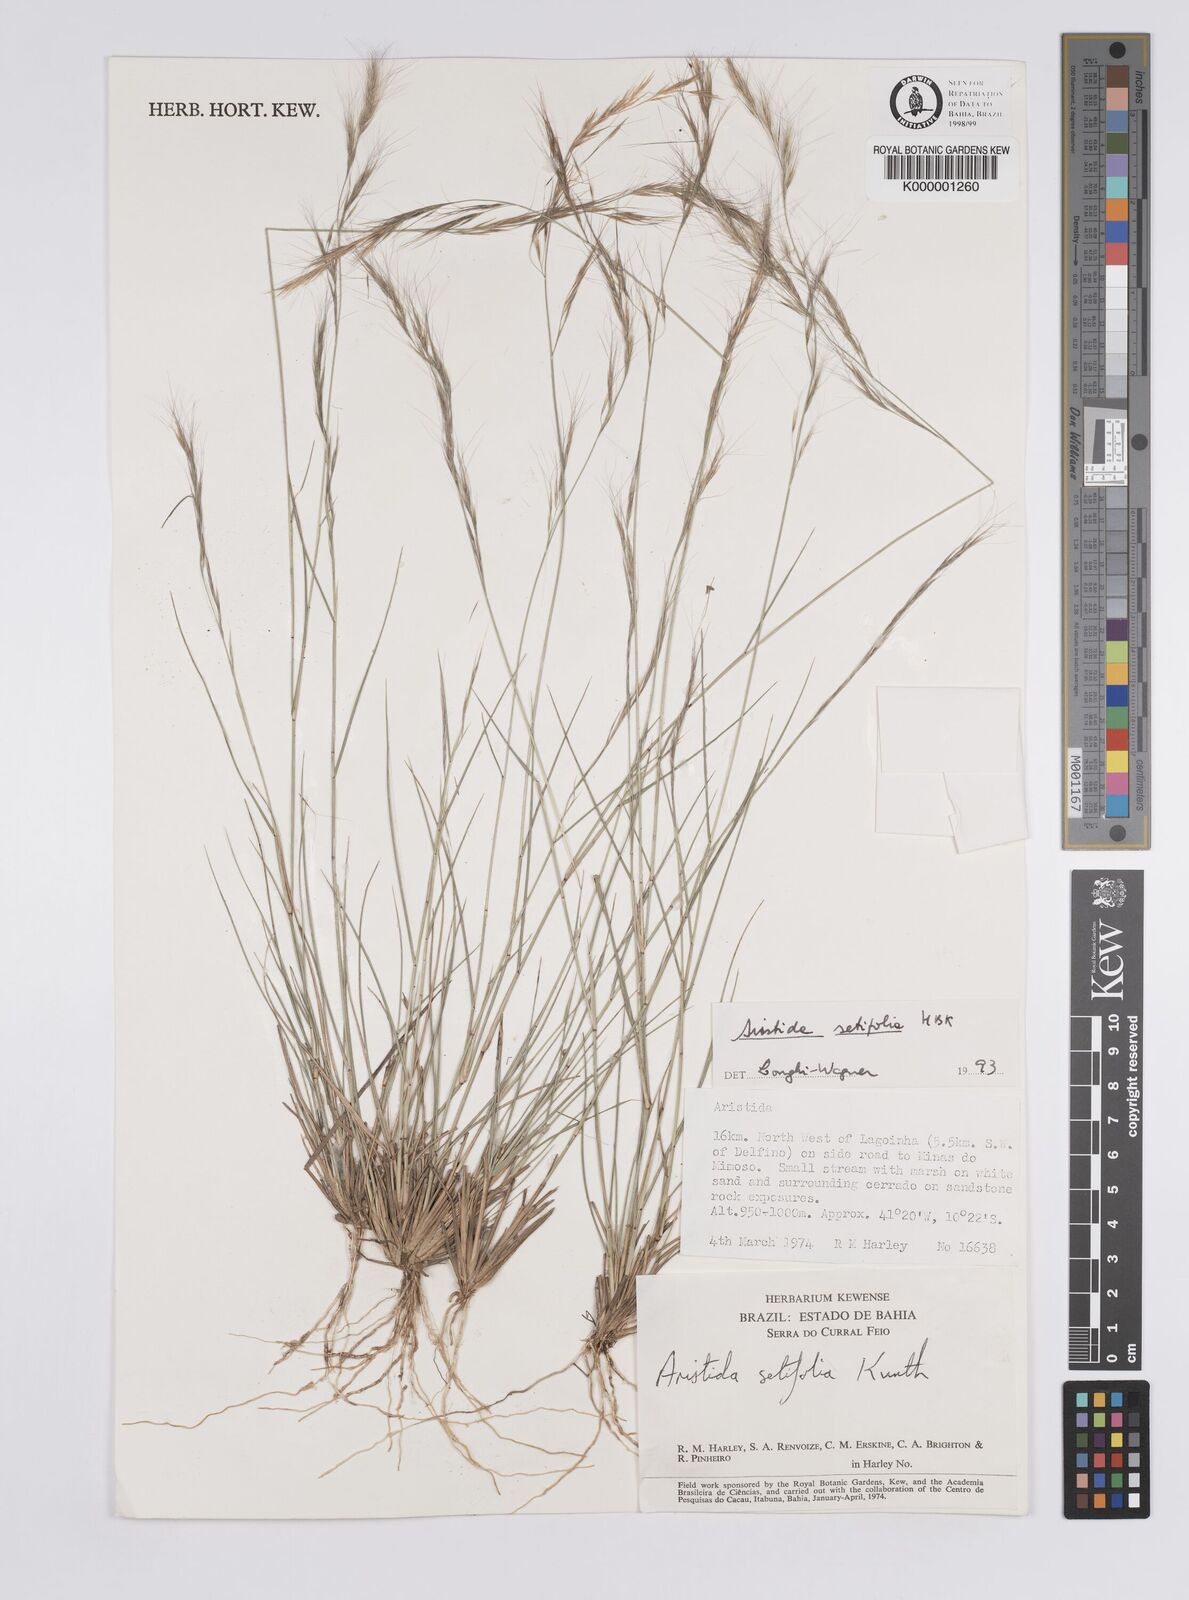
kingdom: Plantae
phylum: Tracheophyta
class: Liliopsida
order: Poales
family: Poaceae
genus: Aristida
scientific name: Aristida setifolia
